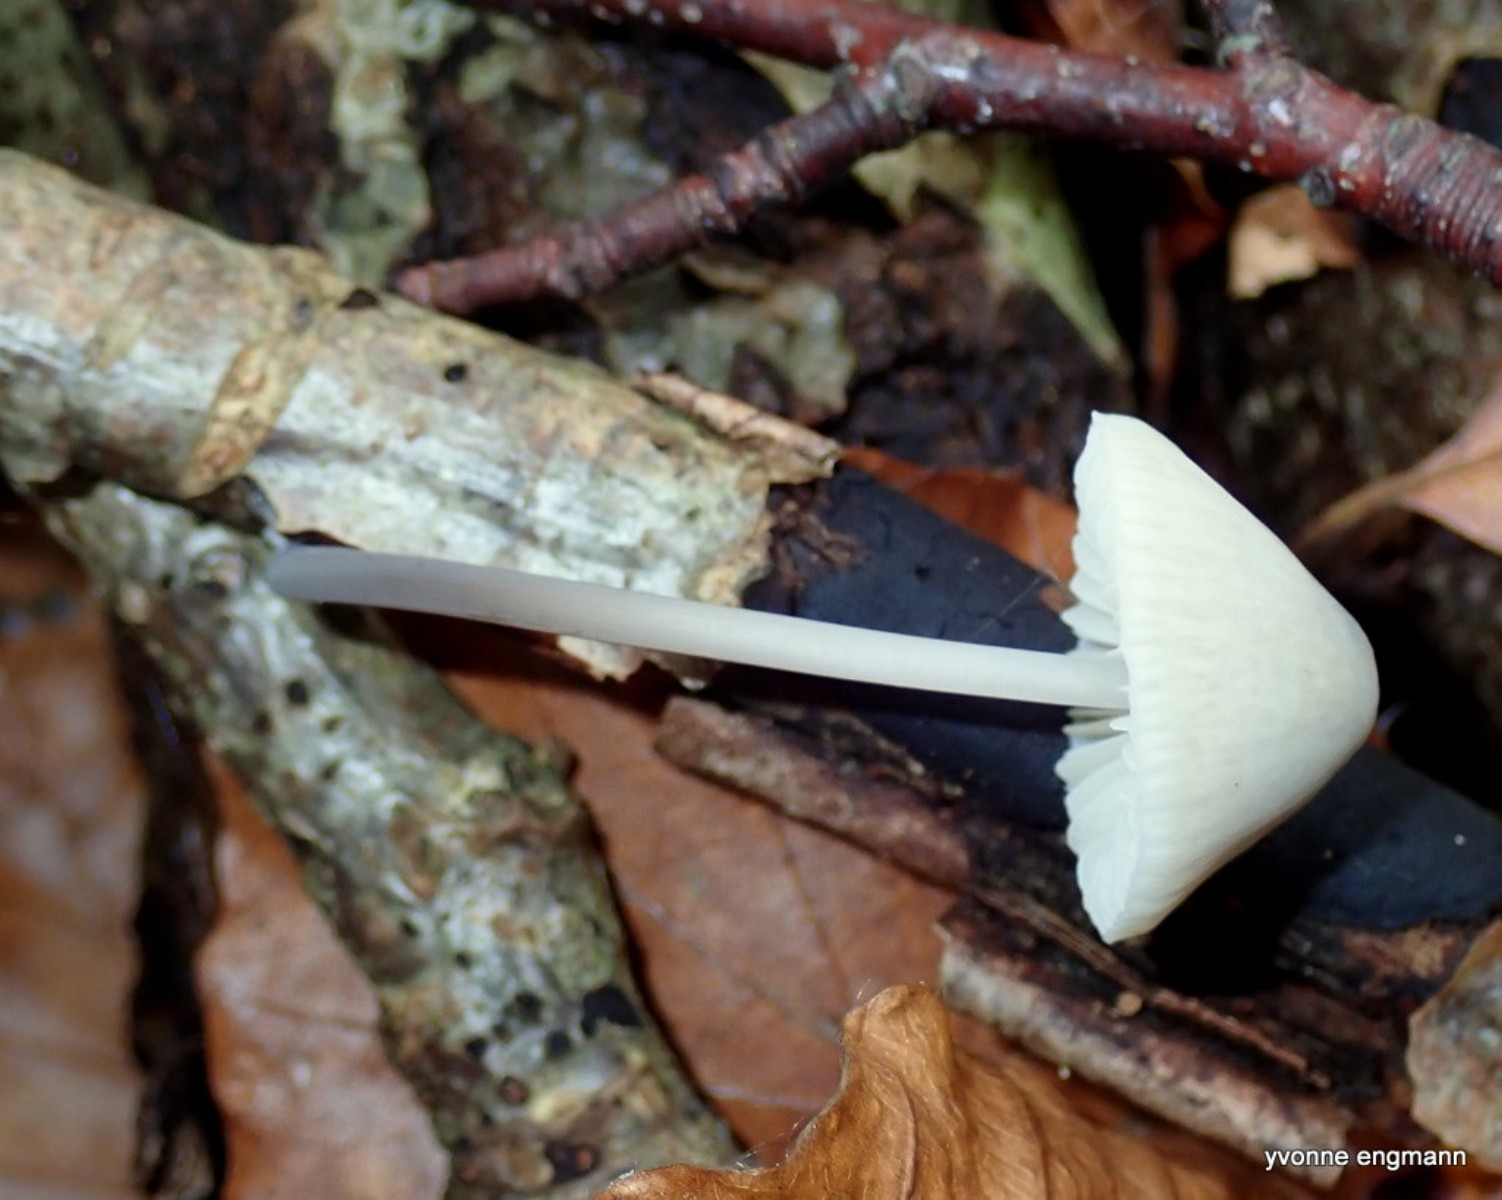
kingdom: Fungi
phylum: Basidiomycota
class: Agaricomycetes
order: Agaricales
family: Mycenaceae
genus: Mycena
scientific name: Mycena
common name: huesvamp
